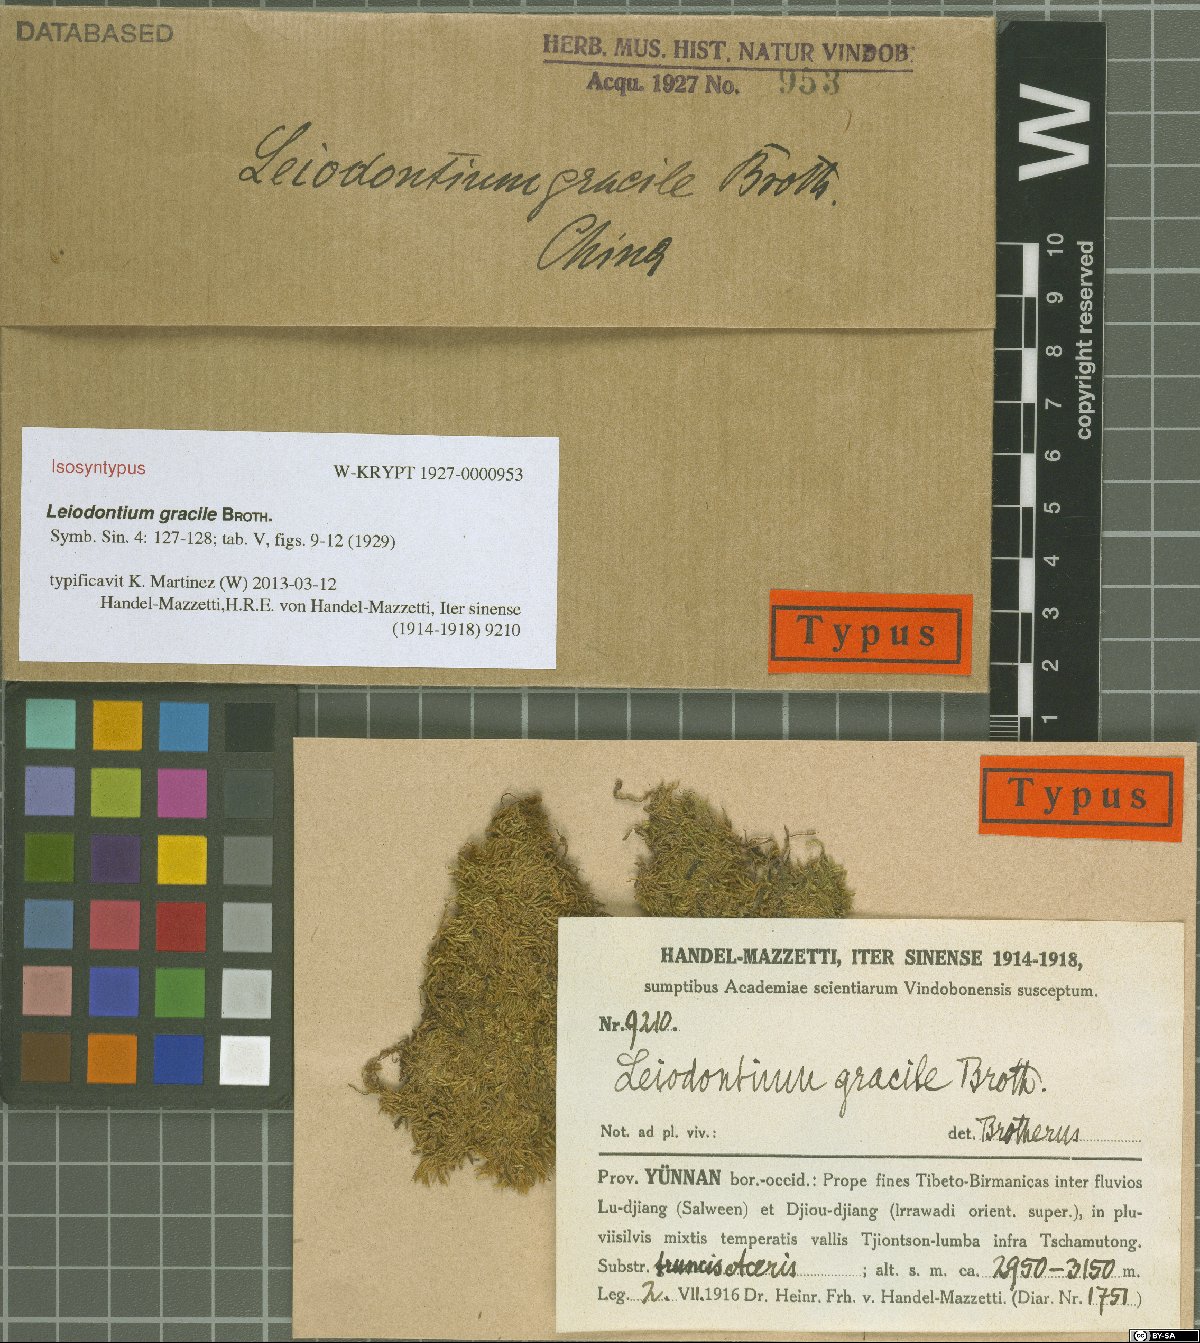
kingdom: Plantae
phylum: Bryophyta
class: Bryopsida
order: Hypnales
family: Hypnaceae
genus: Leiodontium
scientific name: Leiodontium gracile
